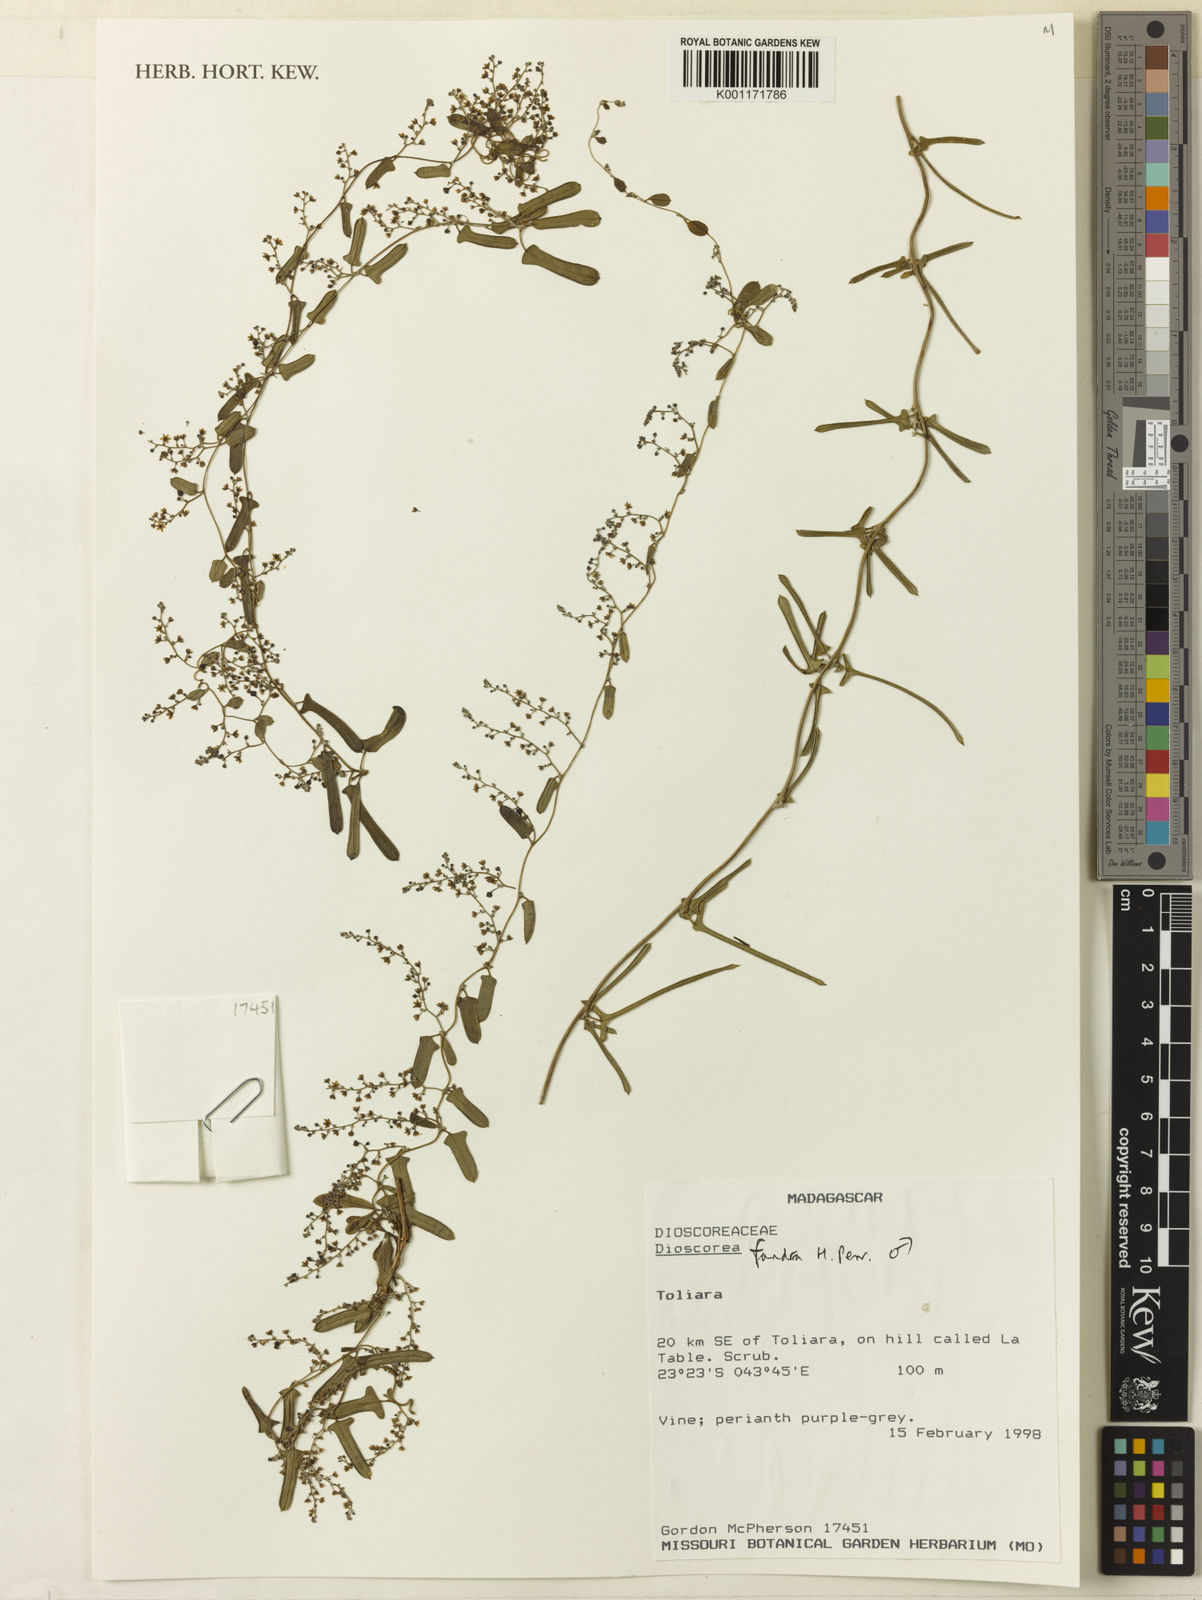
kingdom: Plantae
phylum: Tracheophyta
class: Liliopsida
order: Dioscoreales
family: Dioscoreaceae
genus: Dioscorea
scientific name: Dioscorea fandra
